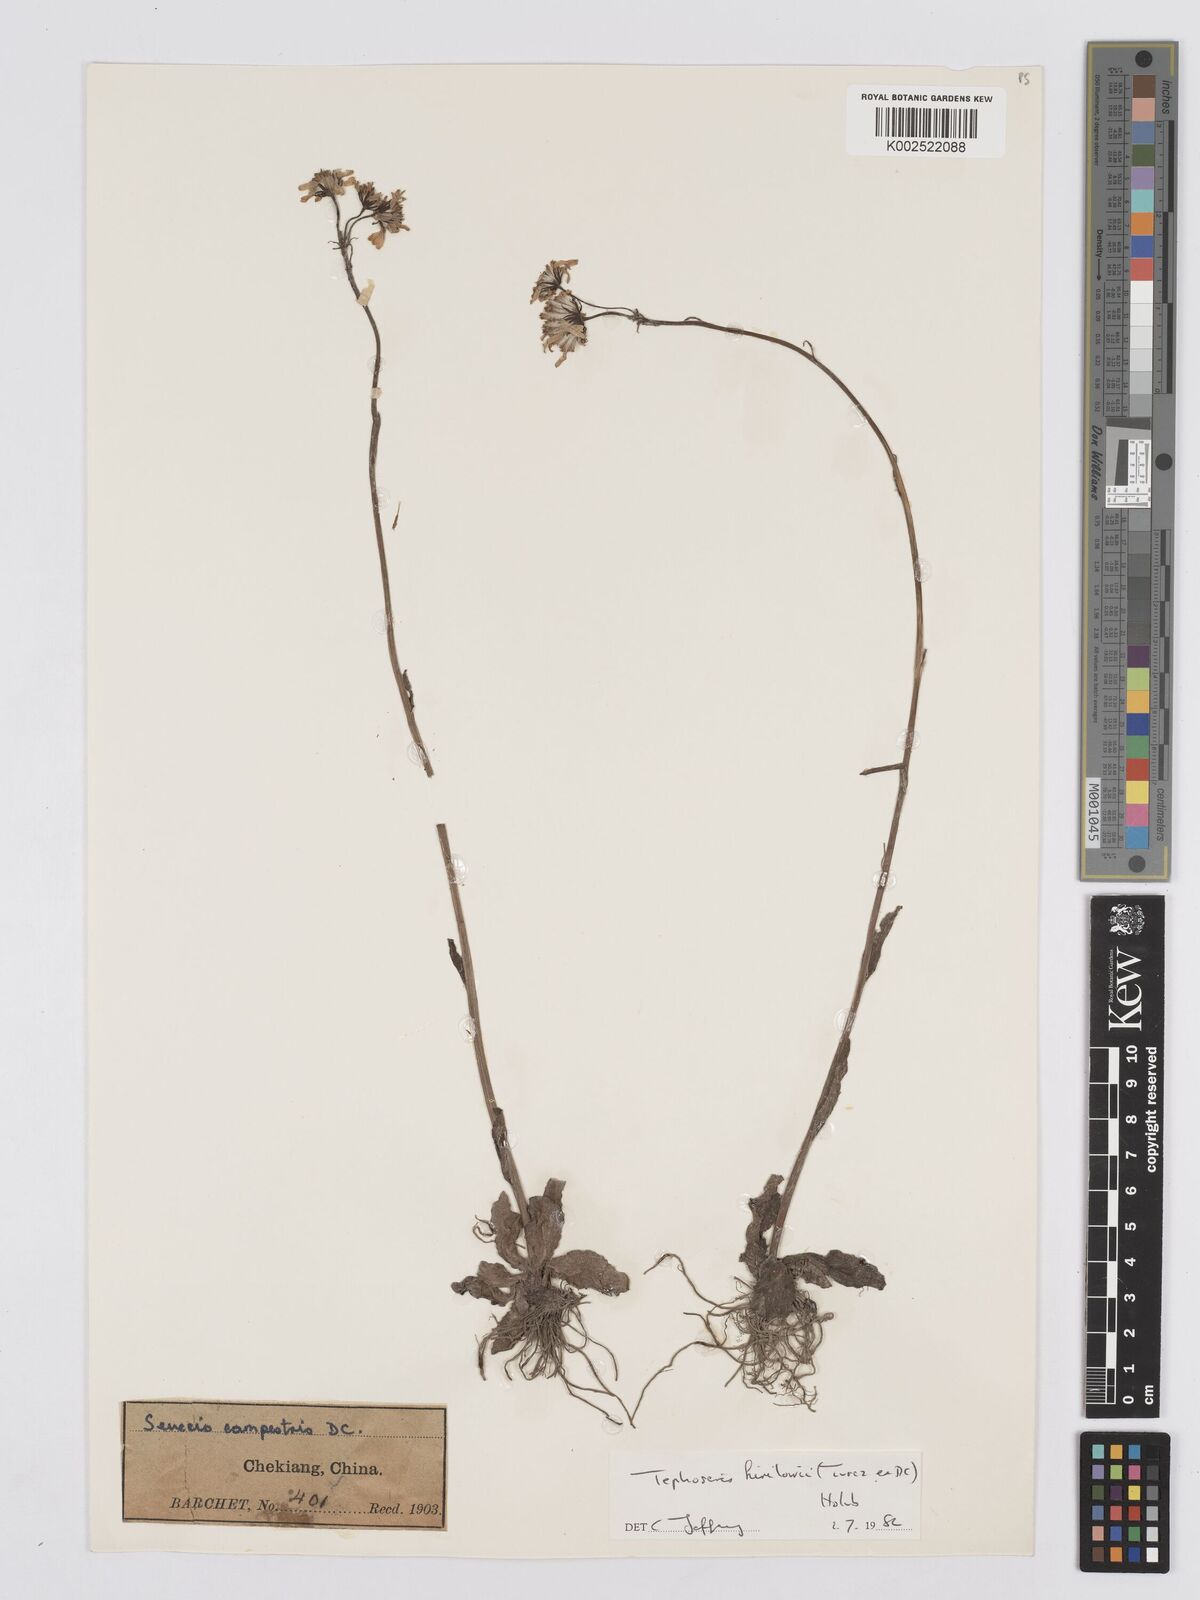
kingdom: Plantae
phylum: Tracheophyta
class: Magnoliopsida
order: Asterales
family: Asteraceae
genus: Tephroseris
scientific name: Tephroseris kirilowii
